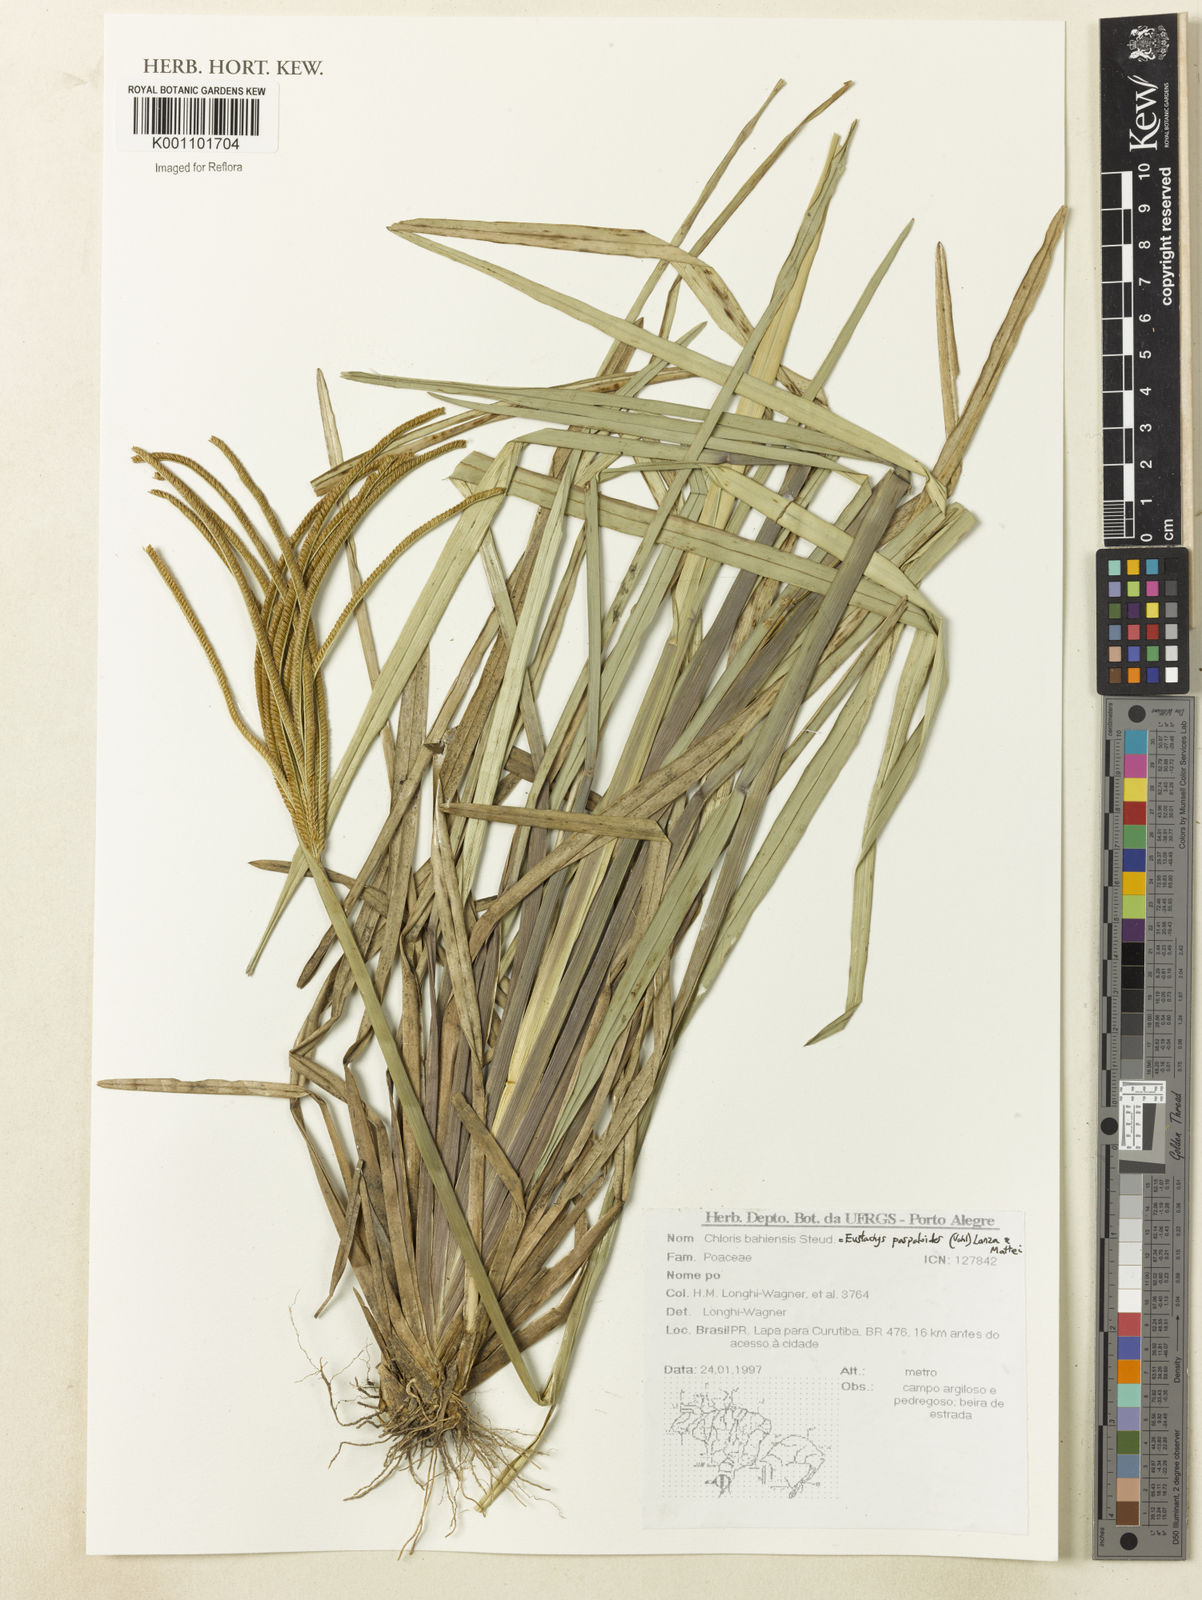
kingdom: Plantae
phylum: Tracheophyta
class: Liliopsida
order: Poales
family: Poaceae
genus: Eustachys
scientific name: Eustachys paspaloides
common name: Caribbean fingergrass
